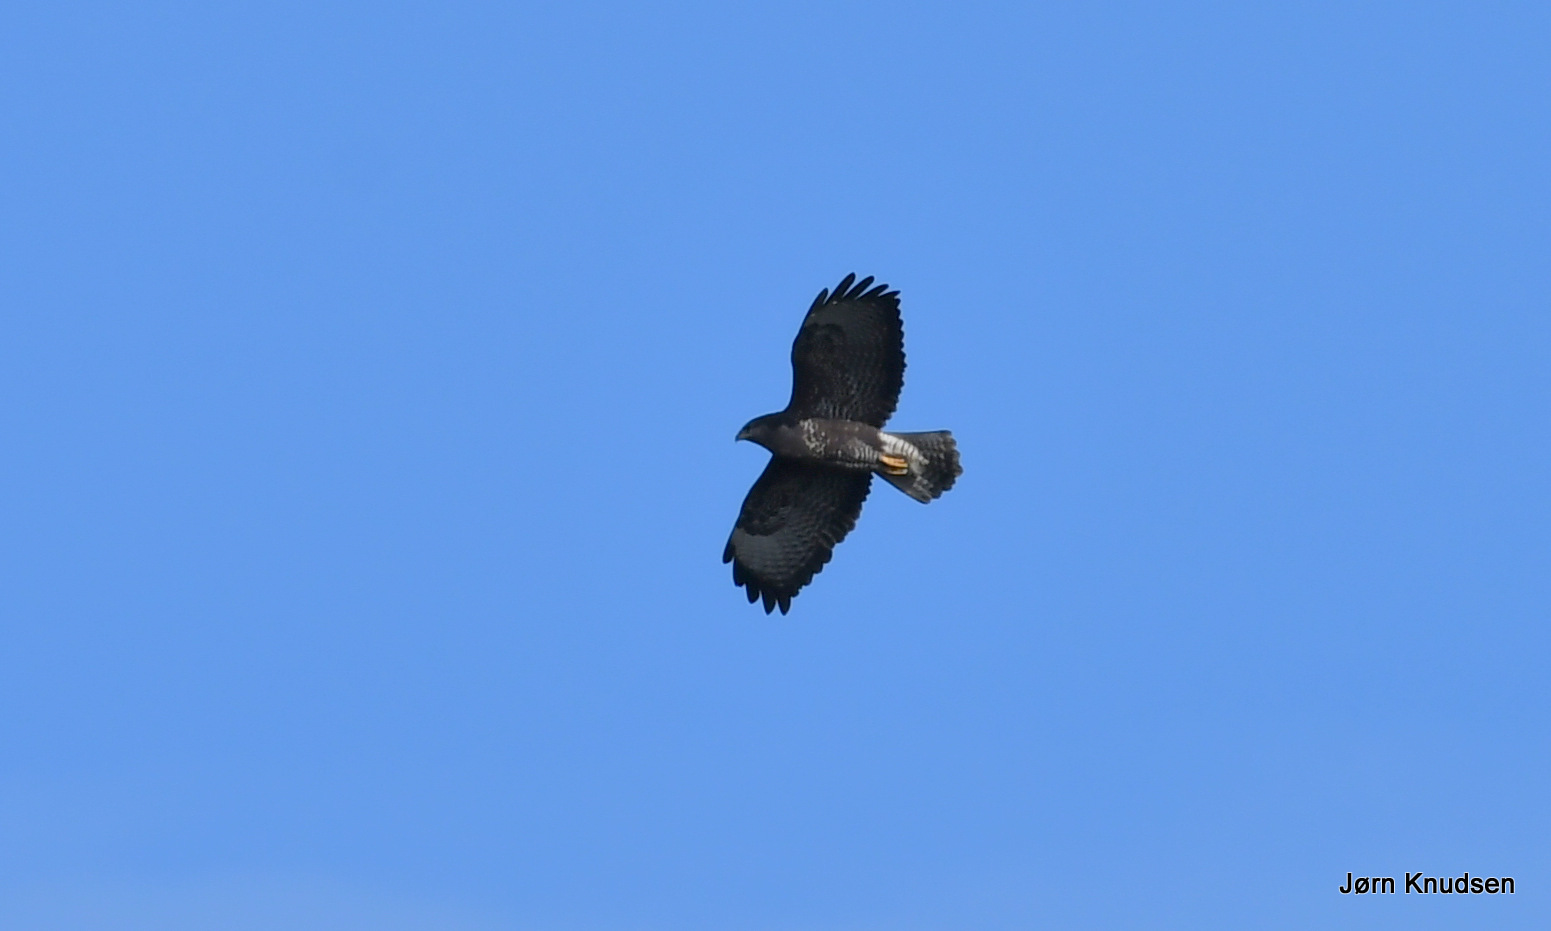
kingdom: Animalia
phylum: Chordata
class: Aves
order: Accipitriformes
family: Accipitridae
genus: Buteo
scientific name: Buteo buteo
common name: Musvåge
